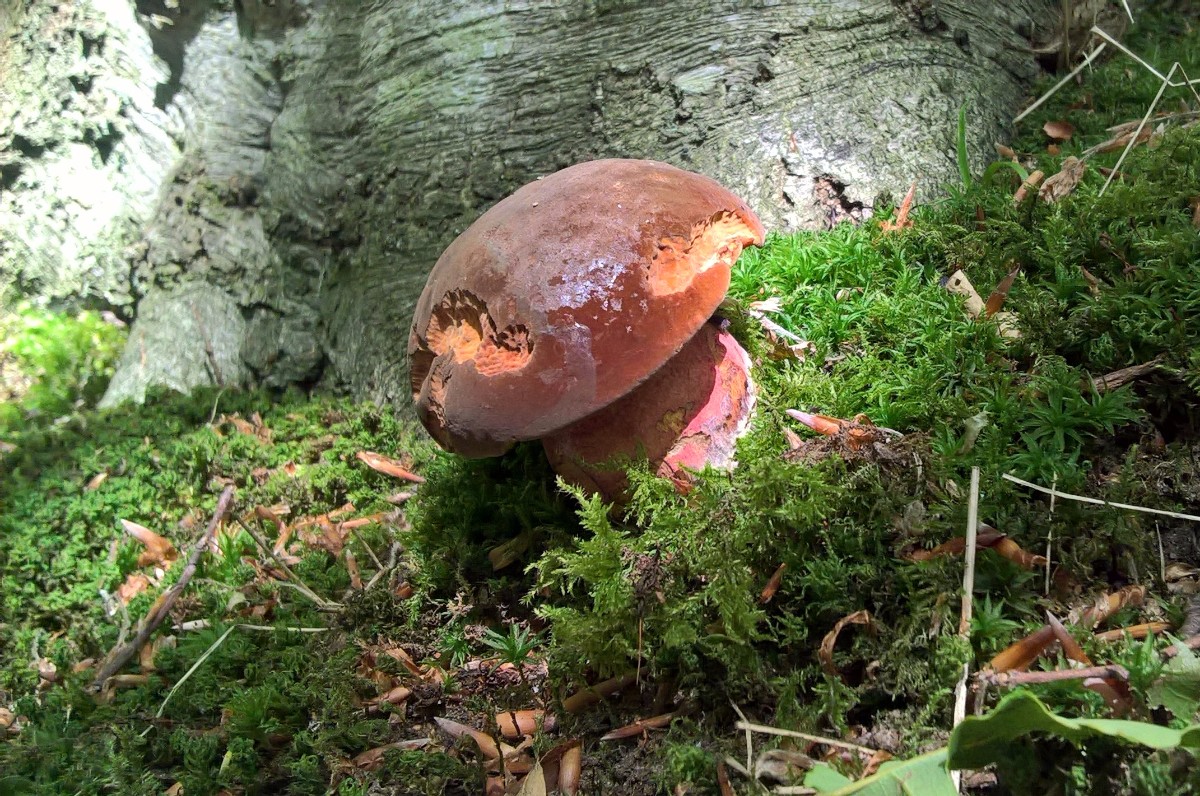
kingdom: Fungi
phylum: Basidiomycota
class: Agaricomycetes
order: Boletales
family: Boletaceae
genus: Neoboletus
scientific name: Neoboletus erythropus
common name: punktstokket indigorørhat
